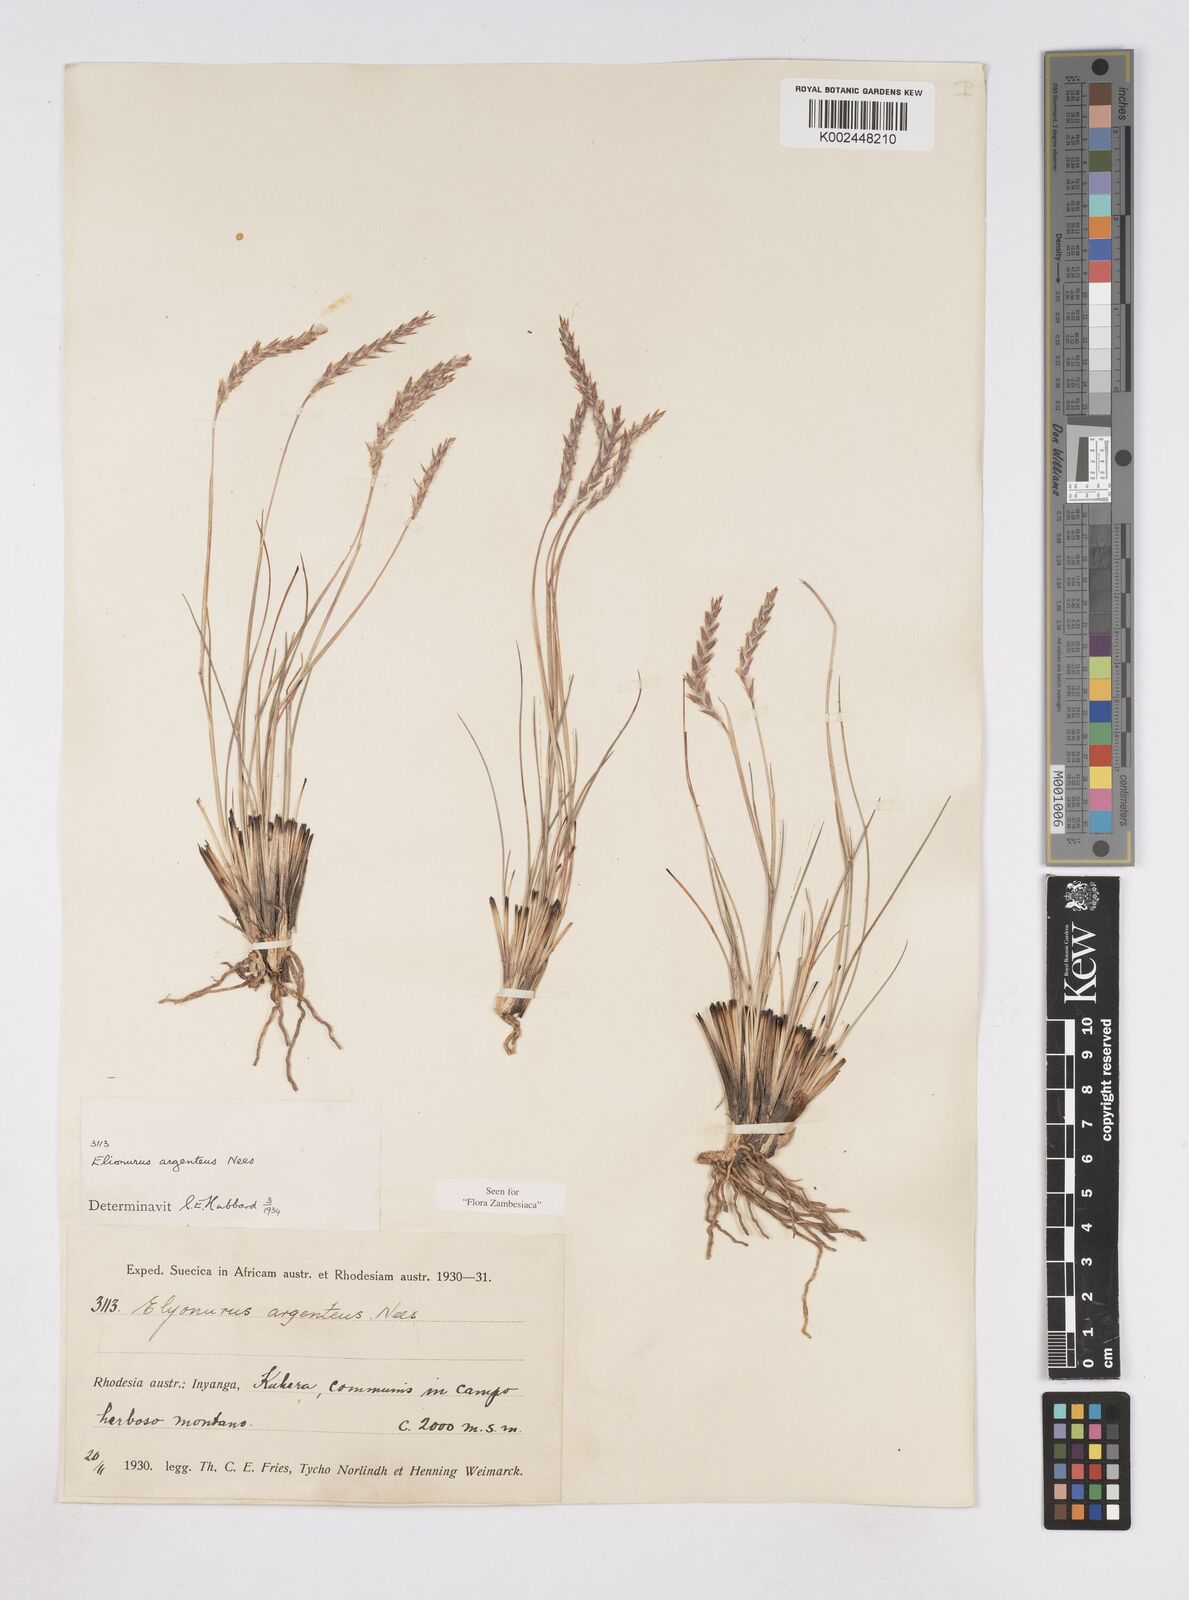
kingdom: Plantae
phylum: Tracheophyta
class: Liliopsida
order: Poales
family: Poaceae
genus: Elionurus
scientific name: Elionurus muticus
